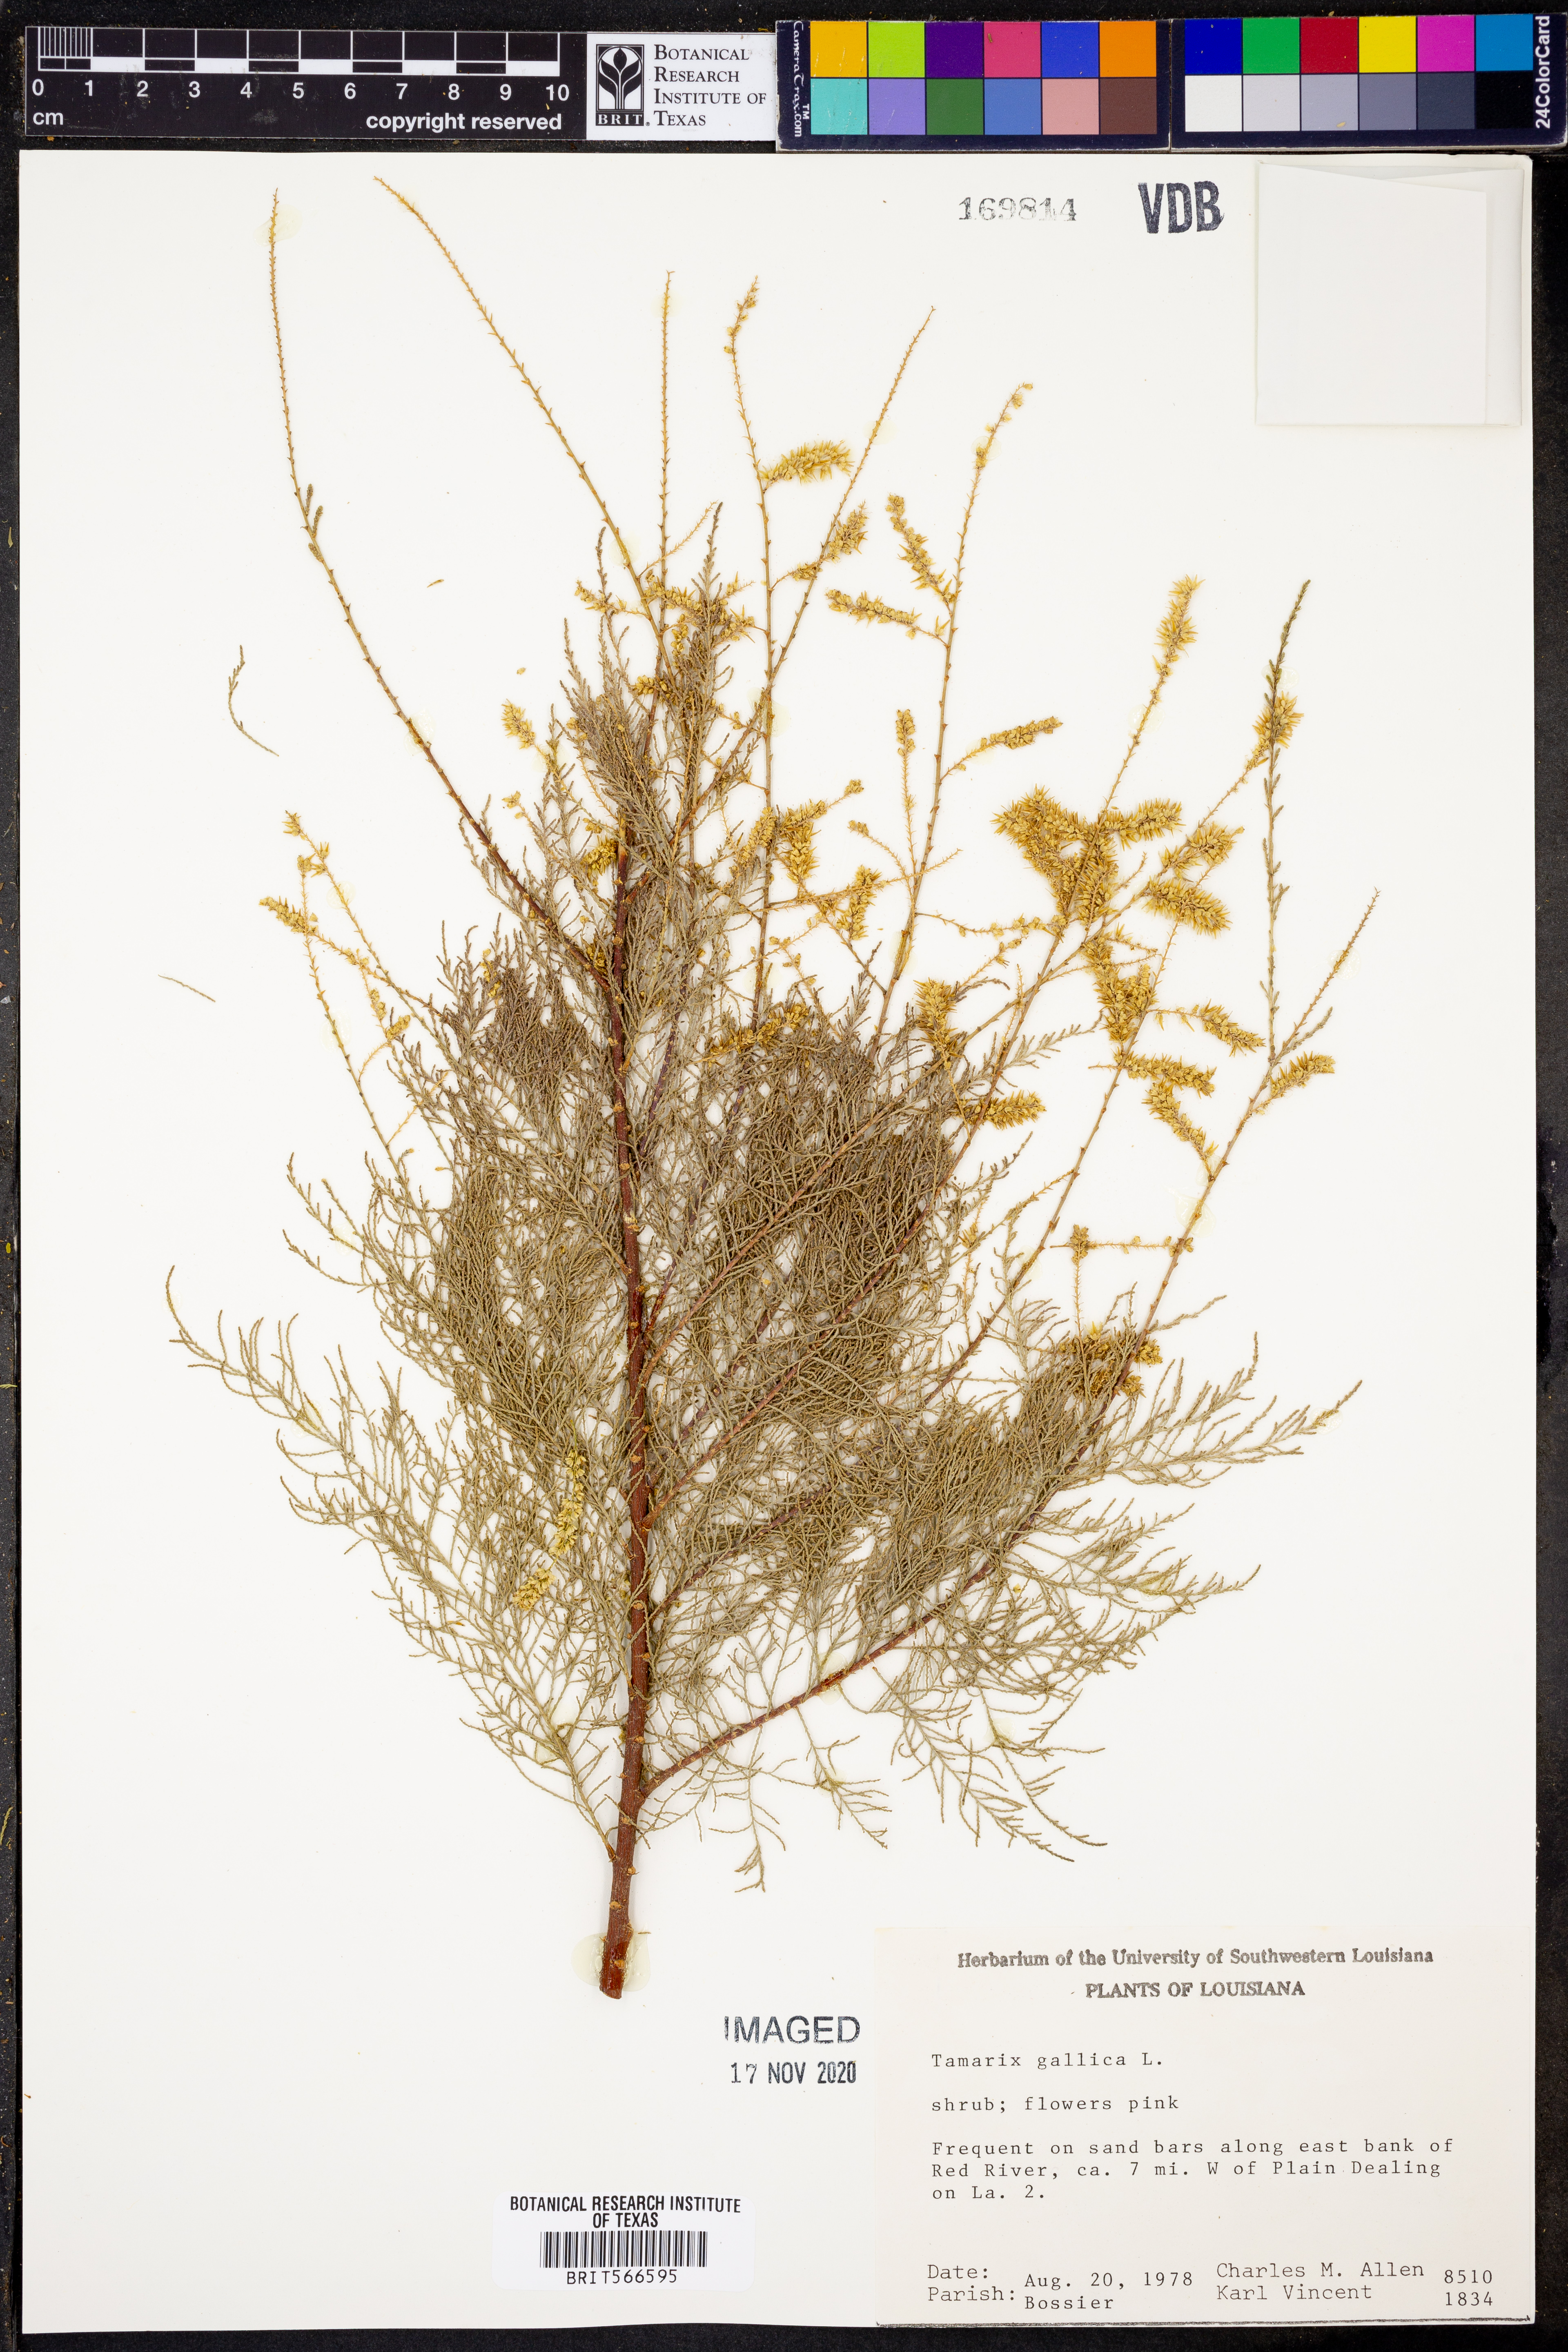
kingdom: Plantae
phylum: Tracheophyta
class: Magnoliopsida
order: Caryophyllales
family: Tamaricaceae
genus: Tamarix
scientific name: Tamarix gallica
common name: Tamarisk
